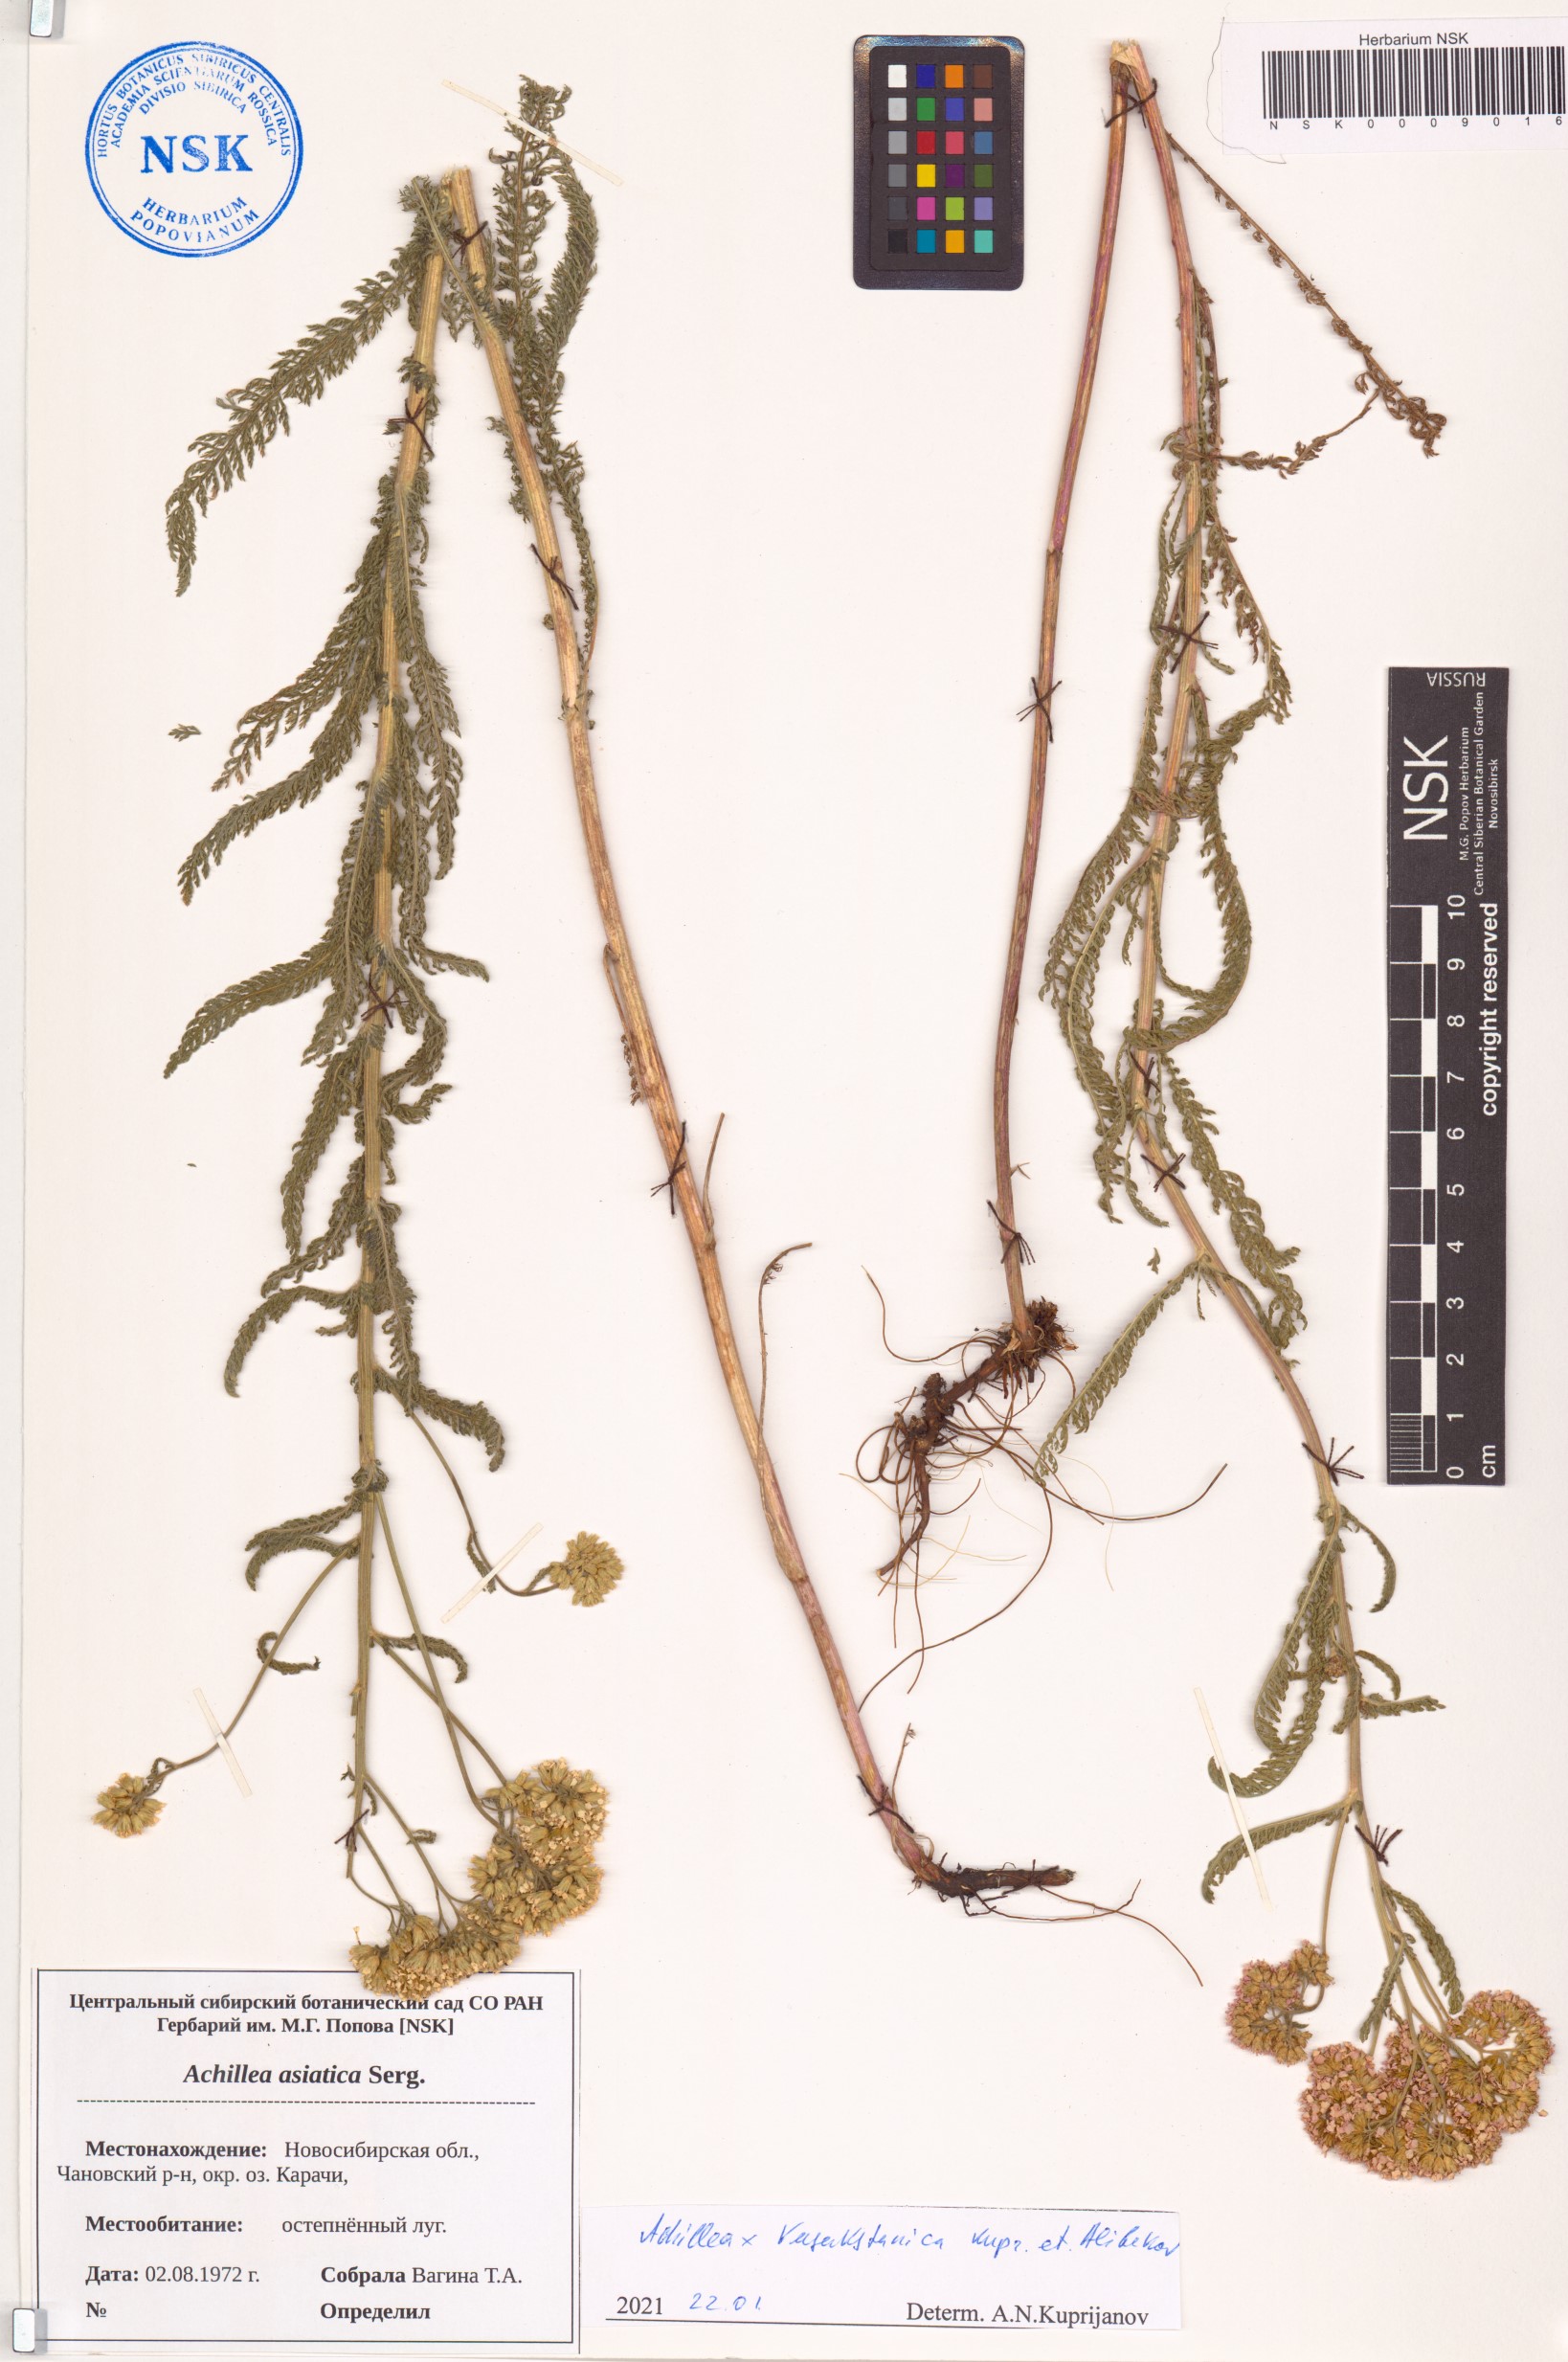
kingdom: Plantae
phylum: Tracheophyta
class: Magnoliopsida
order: Asterales
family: Asteraceae
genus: Achillea
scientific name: Achillea
